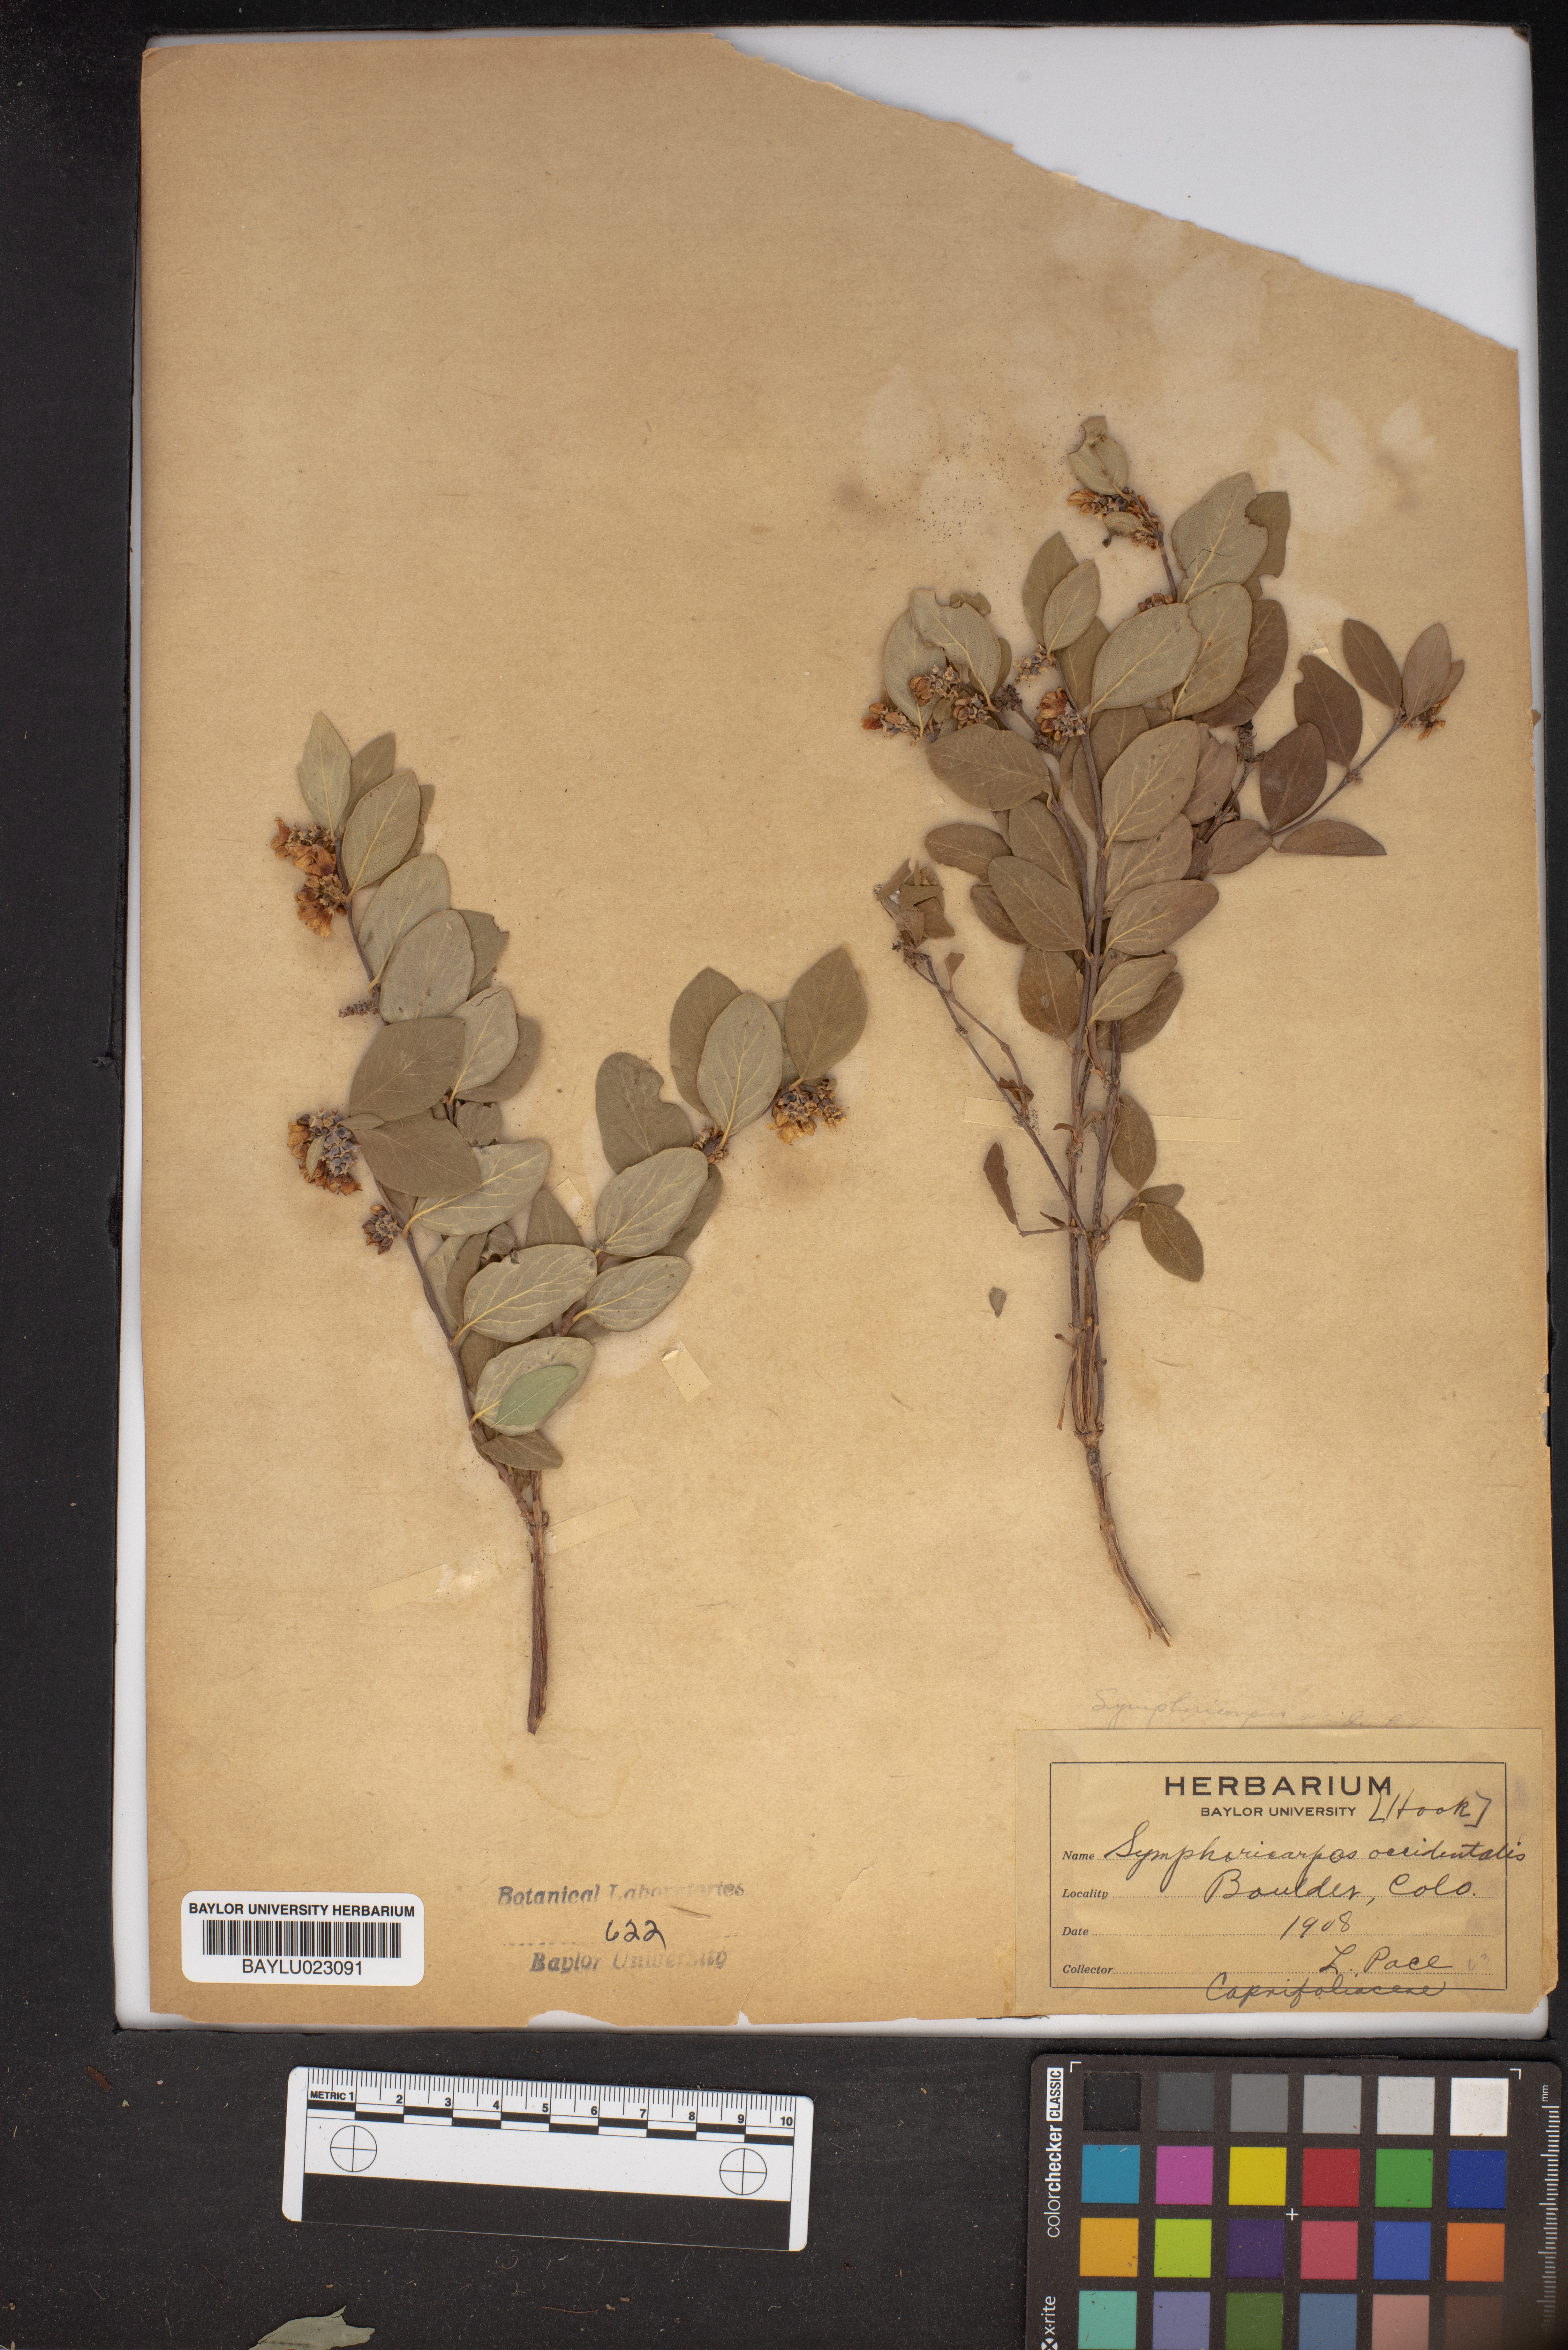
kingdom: Plantae
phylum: Tracheophyta
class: Magnoliopsida
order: Dipsacales
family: Caprifoliaceae
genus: Symphoricarpos
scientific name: Symphoricarpos occidentalis
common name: Wolfberry
